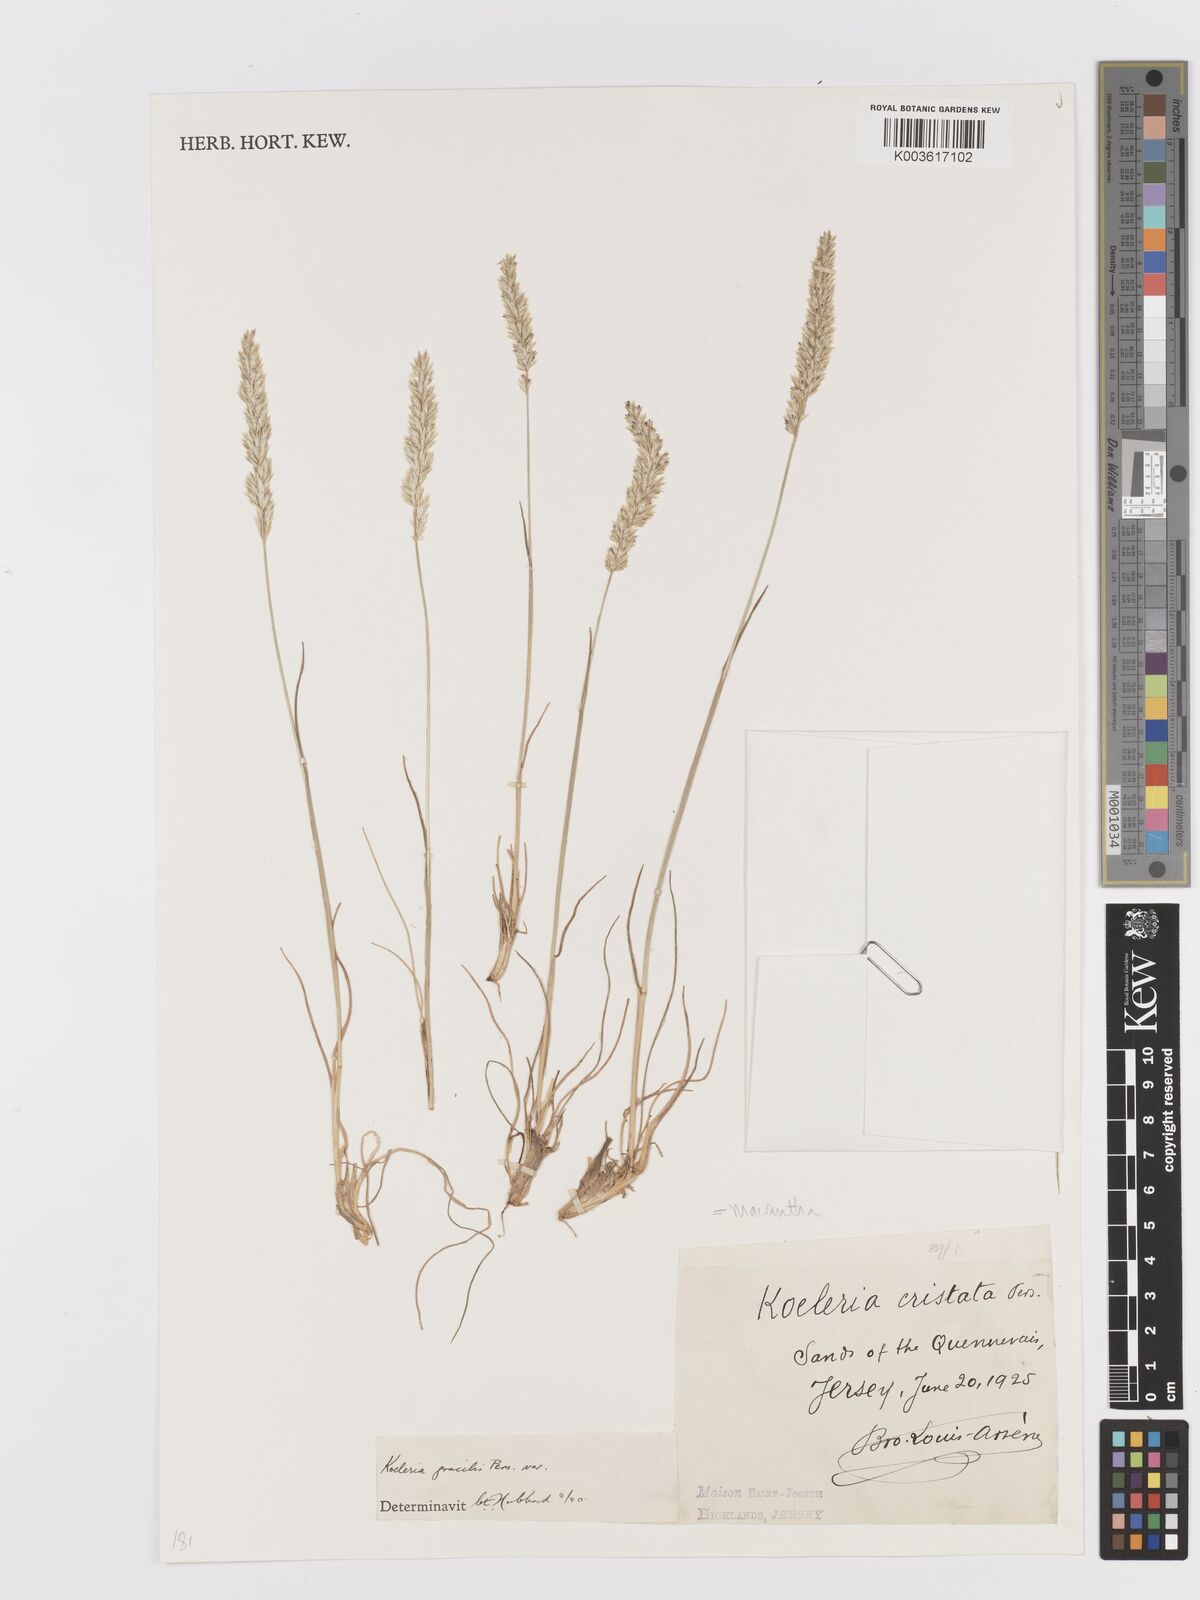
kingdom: Plantae
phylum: Tracheophyta
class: Liliopsida
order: Poales
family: Poaceae
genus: Koeleria
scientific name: Koeleria macrantha
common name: Crested hair-grass
